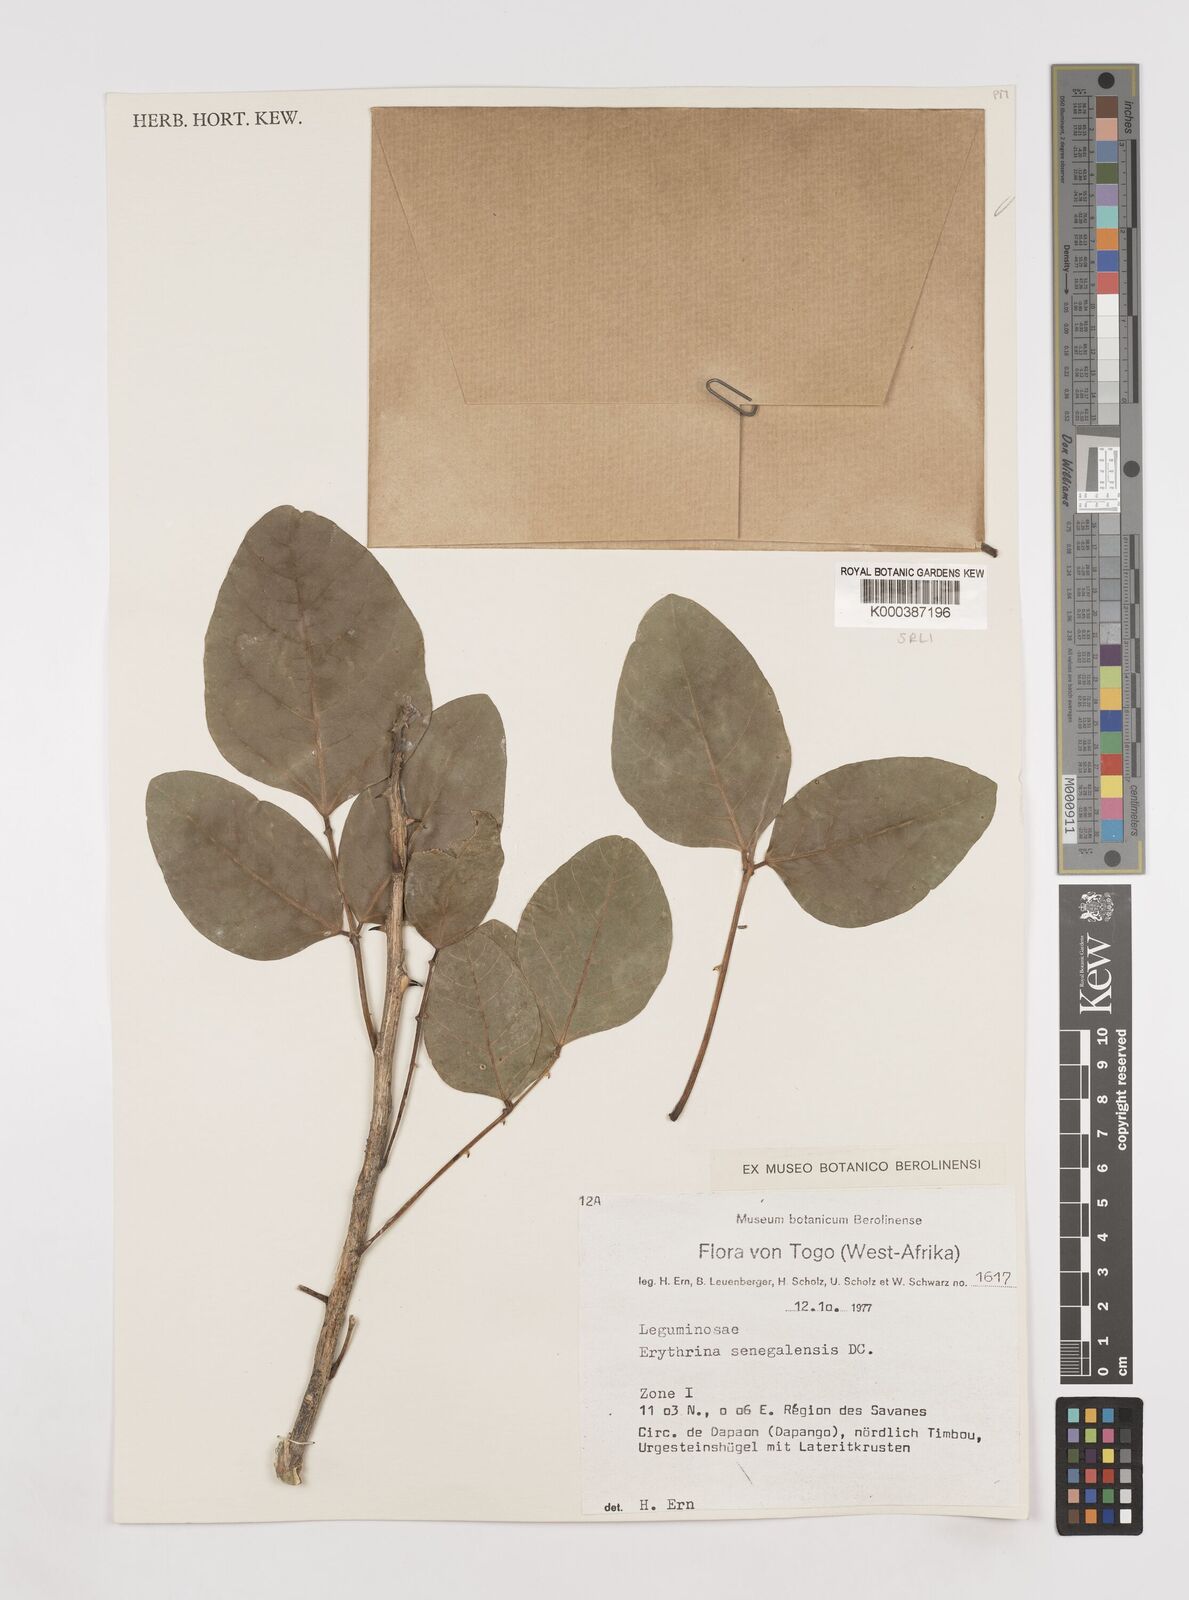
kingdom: Plantae
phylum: Tracheophyta
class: Magnoliopsida
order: Fabales
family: Fabaceae
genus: Erythrina
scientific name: Erythrina senegalensis
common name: Senegal coraltree
